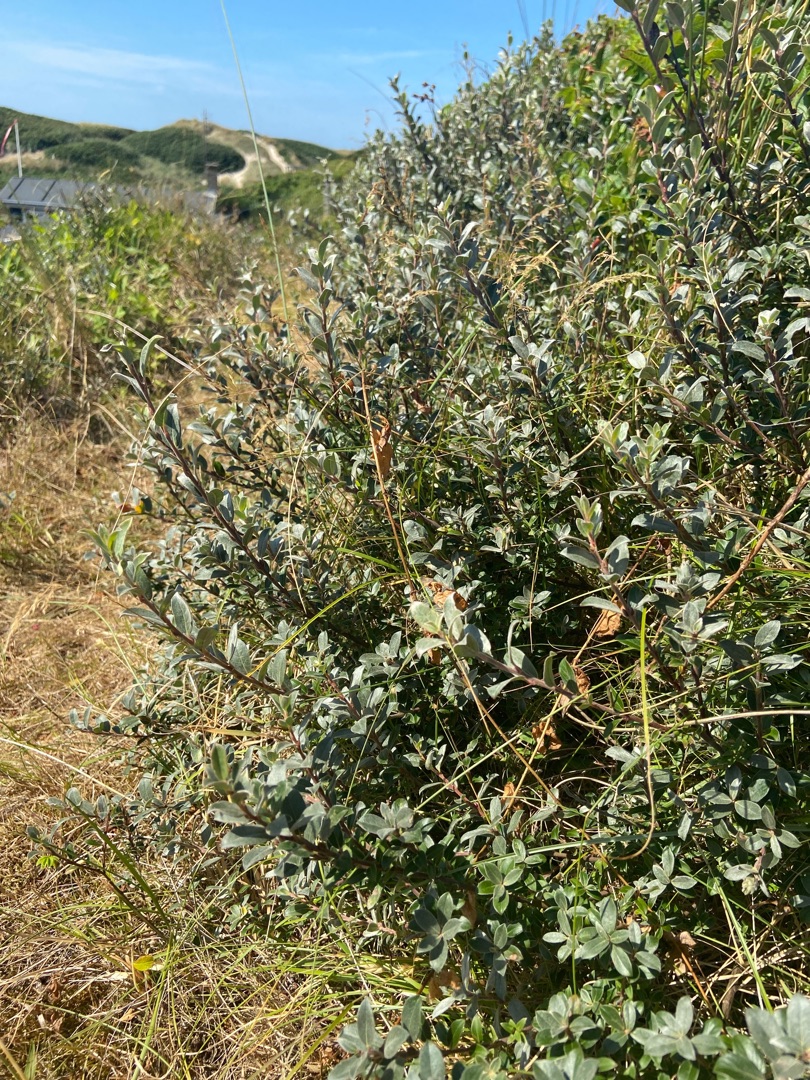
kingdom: Plantae
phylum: Tracheophyta
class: Magnoliopsida
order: Malpighiales
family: Salicaceae
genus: Salix
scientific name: Salix repens
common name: Gråris
